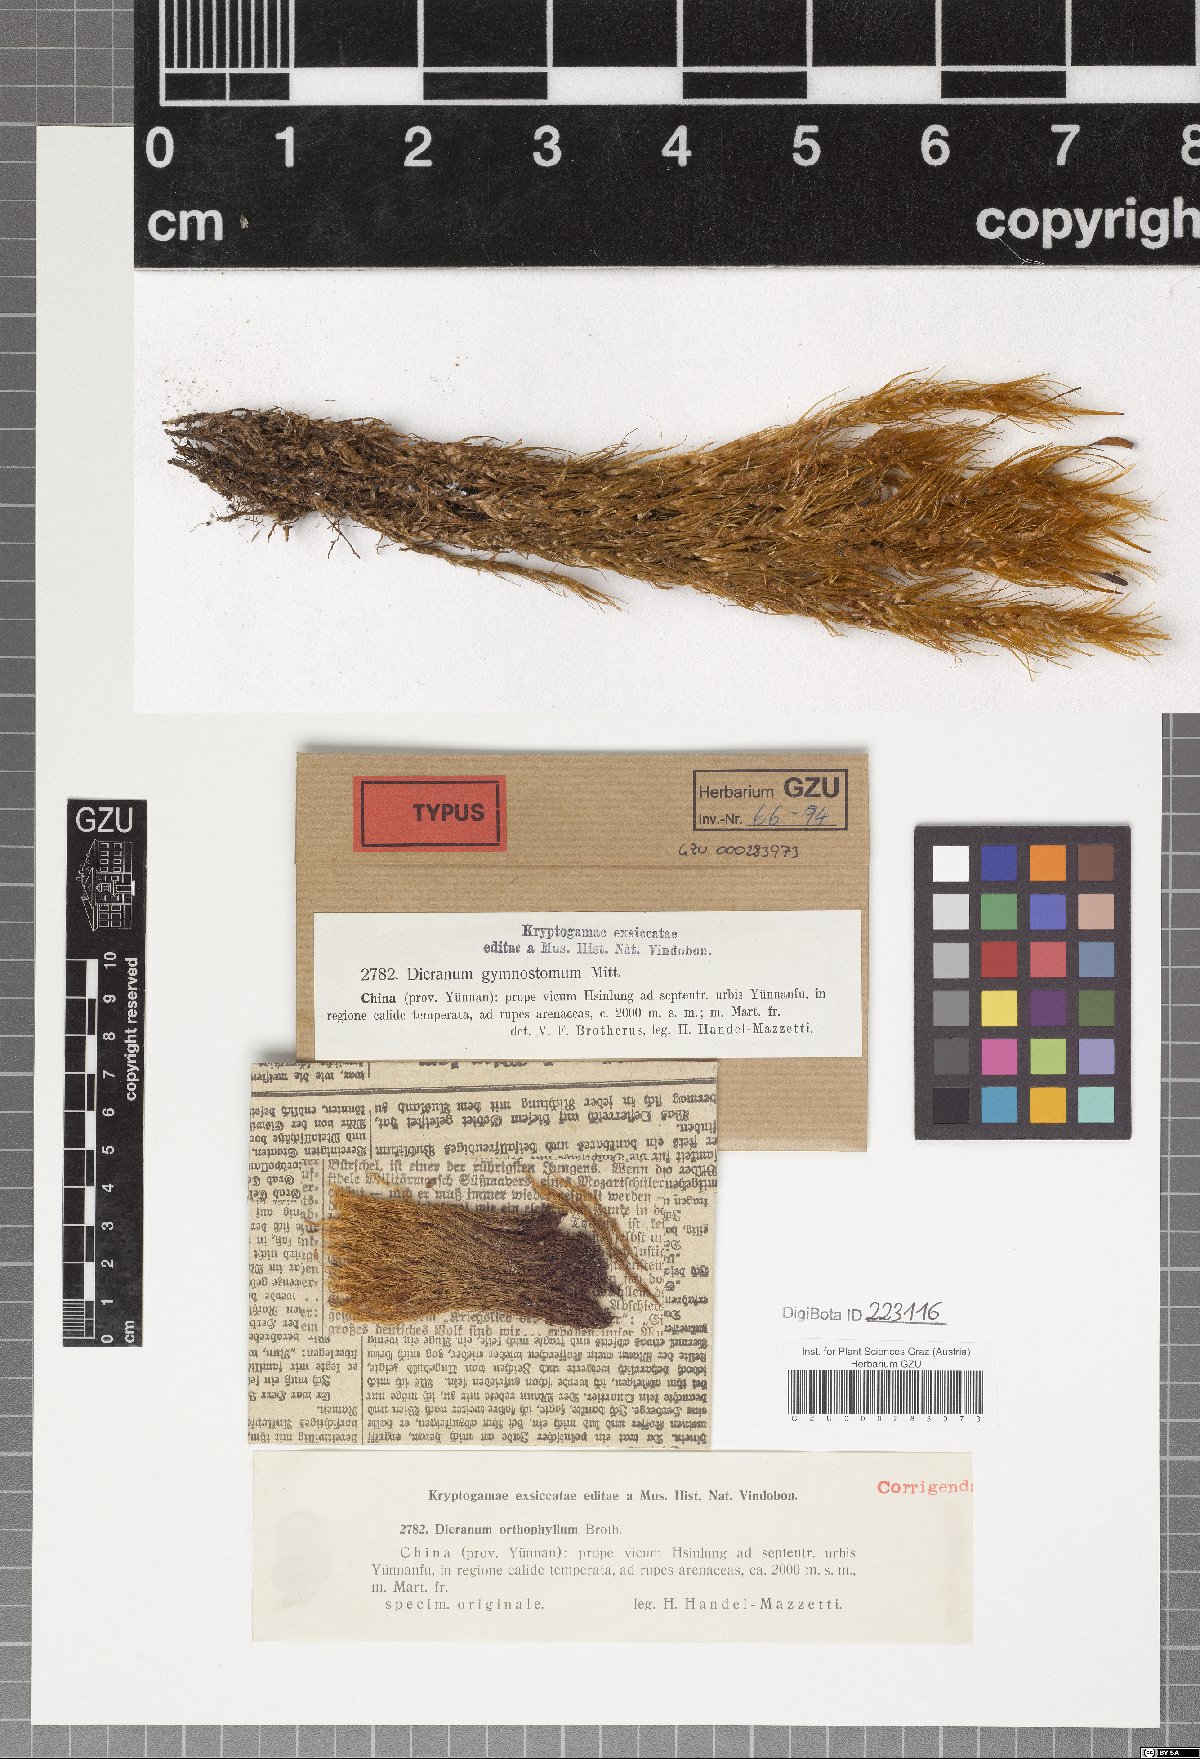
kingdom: Plantae
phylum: Bryophyta
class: Bryopsida
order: Dicranales
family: Dicranaceae
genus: Dicranum
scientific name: Dicranum scoparium
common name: Broom fork-moss
